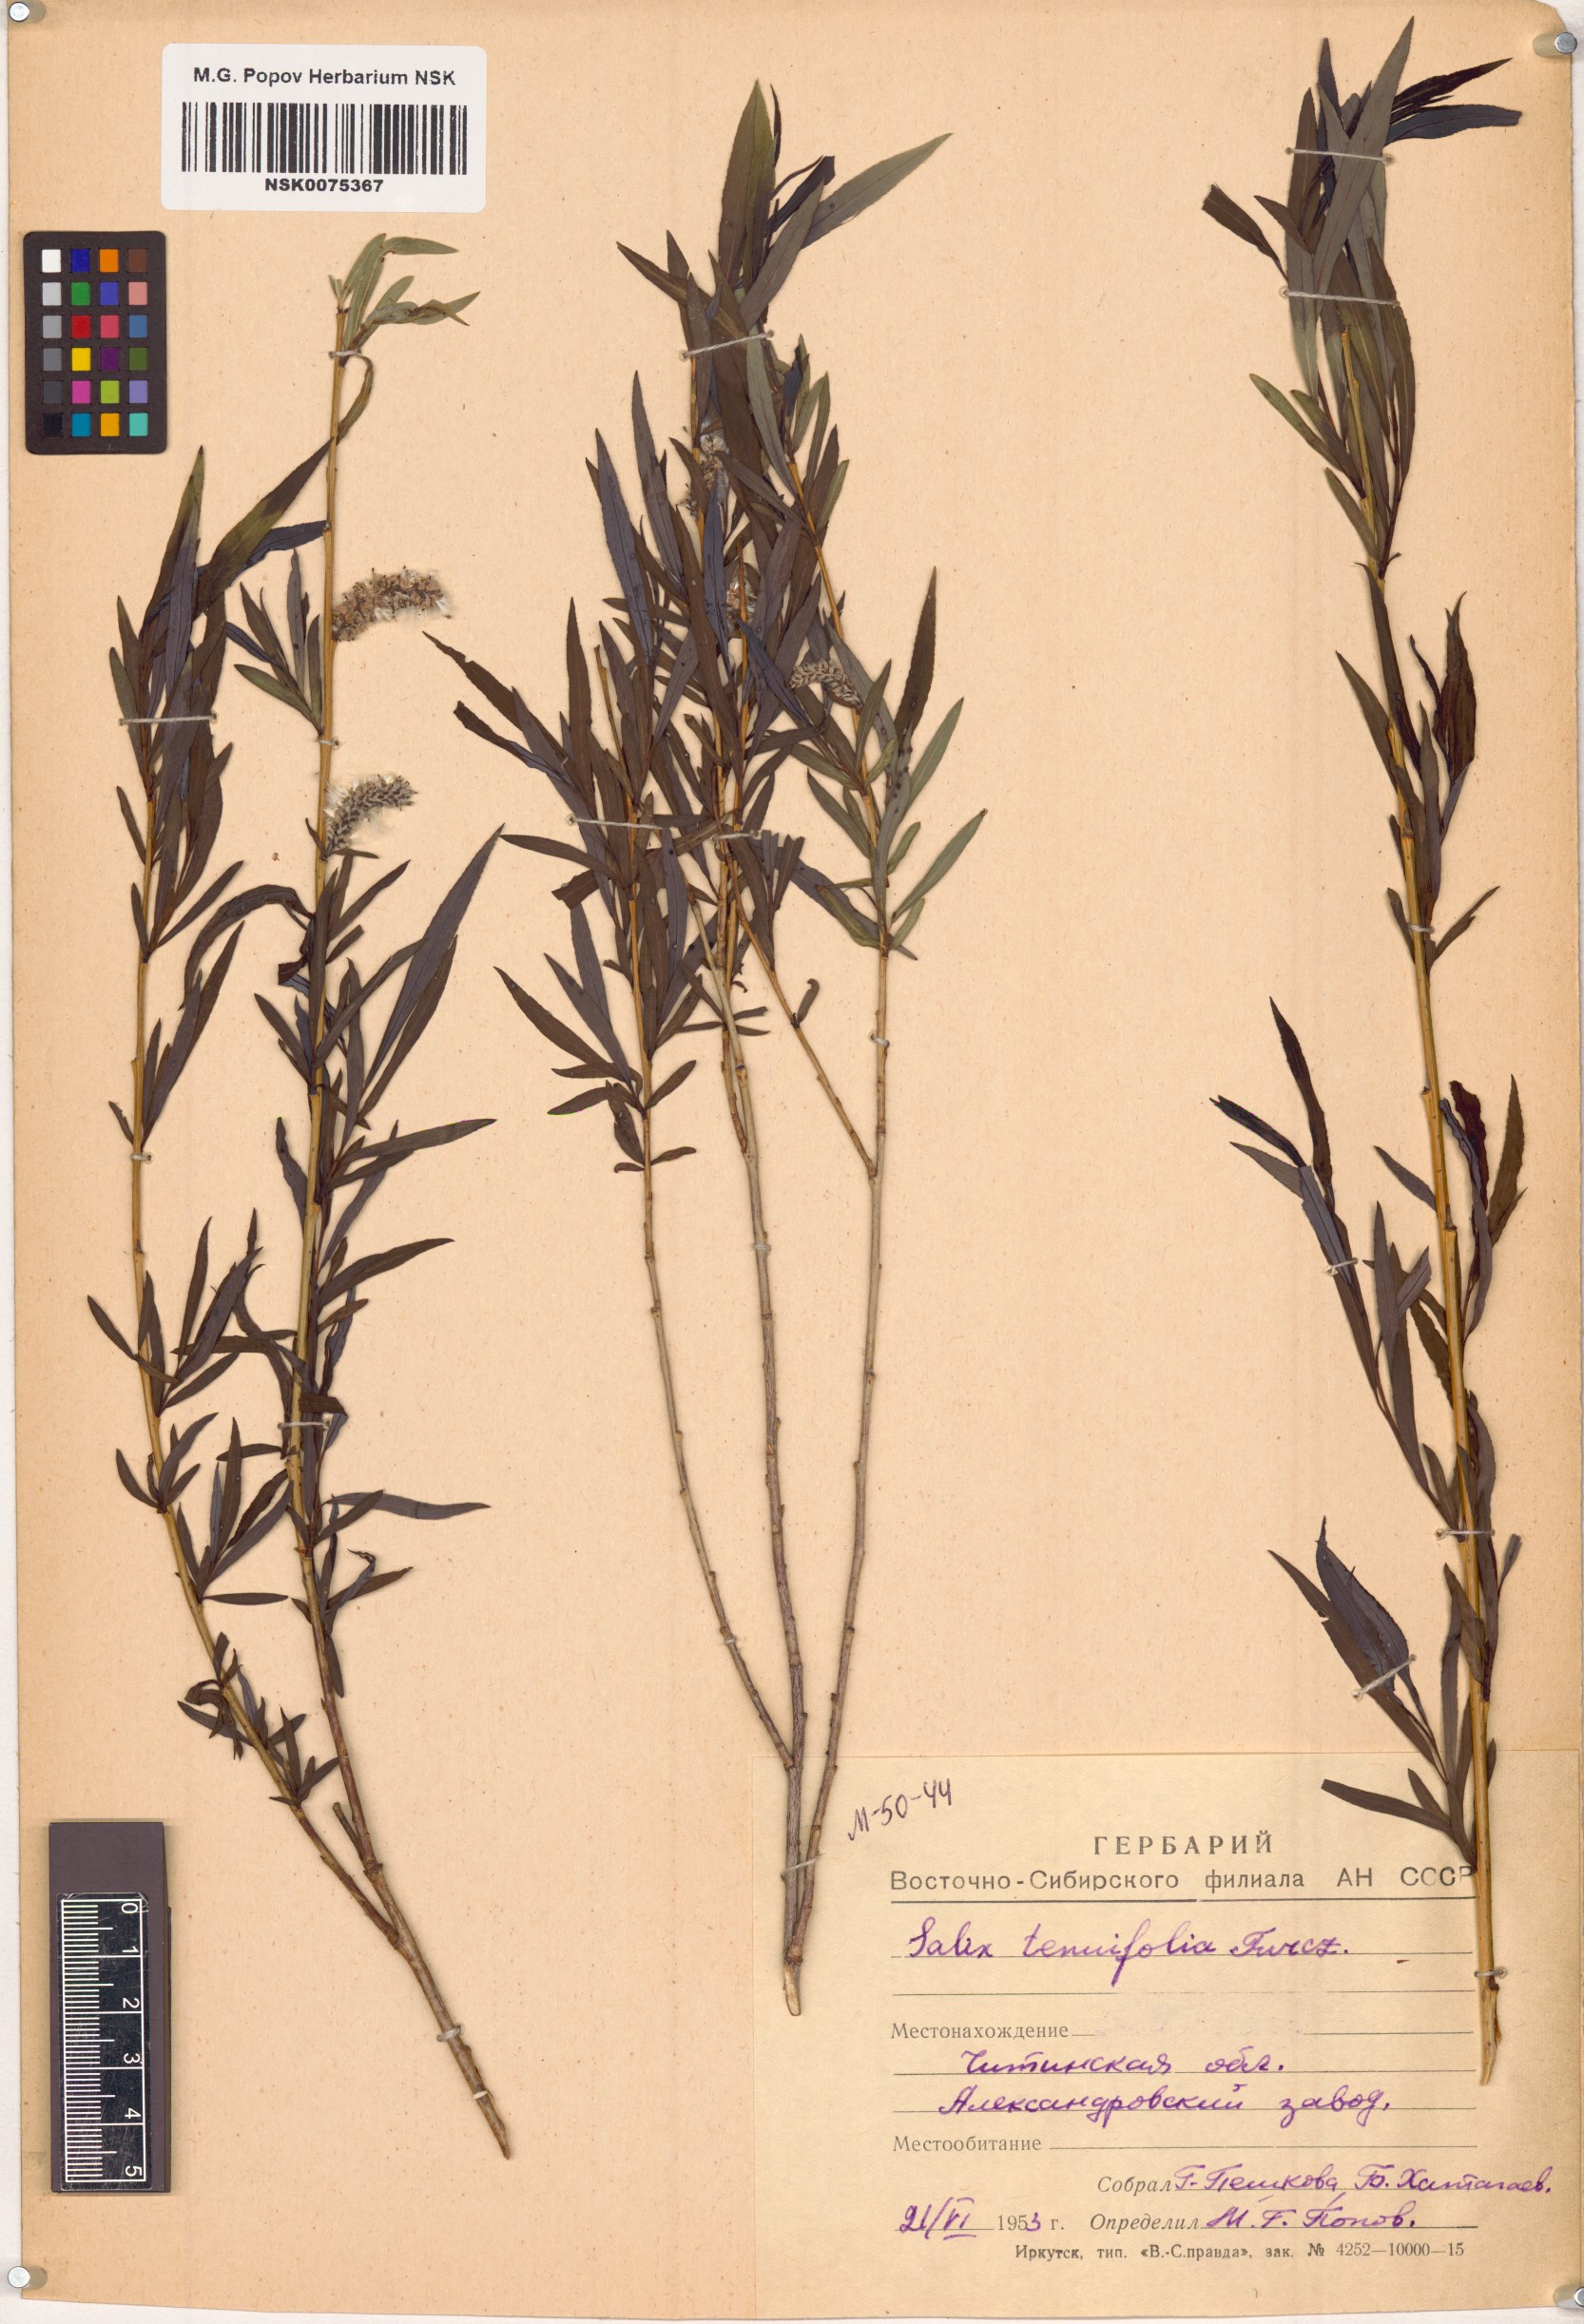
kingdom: Plantae
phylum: Tracheophyta
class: Magnoliopsida
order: Malpighiales
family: Salicaceae
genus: Salix
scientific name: Salix
